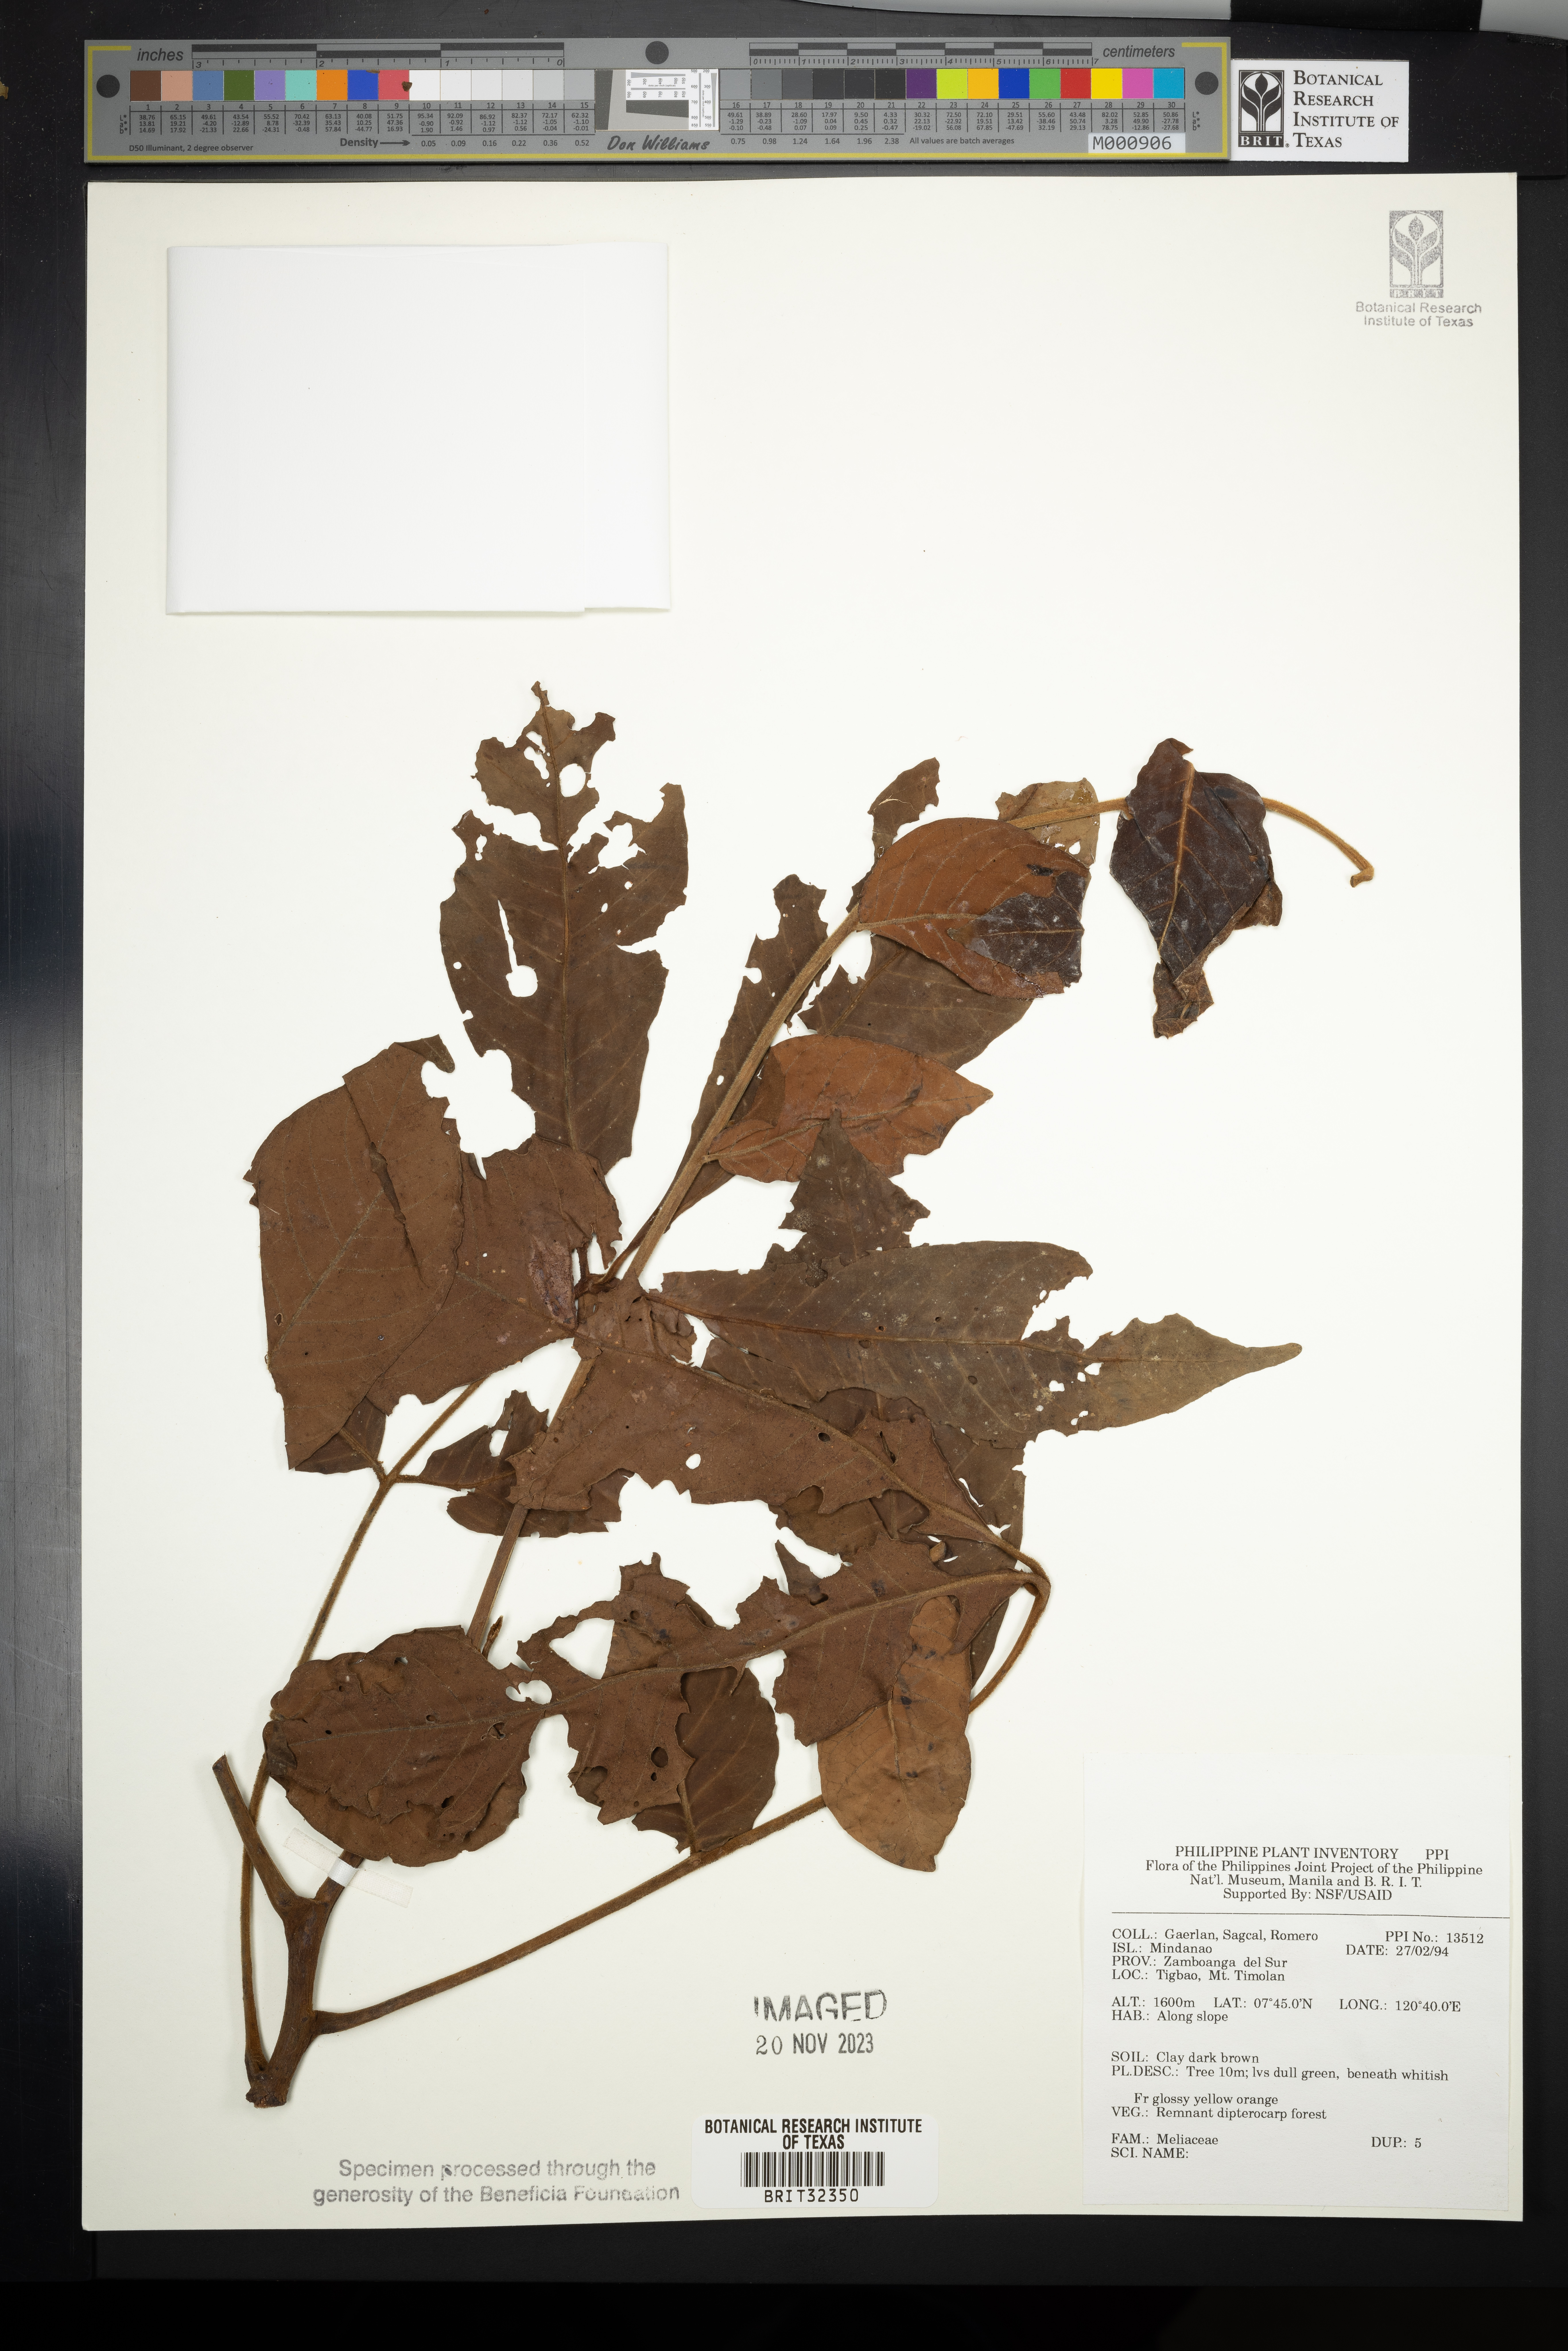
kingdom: Plantae
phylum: Tracheophyta
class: Magnoliopsida
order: Sapindales
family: Meliaceae
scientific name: Meliaceae
